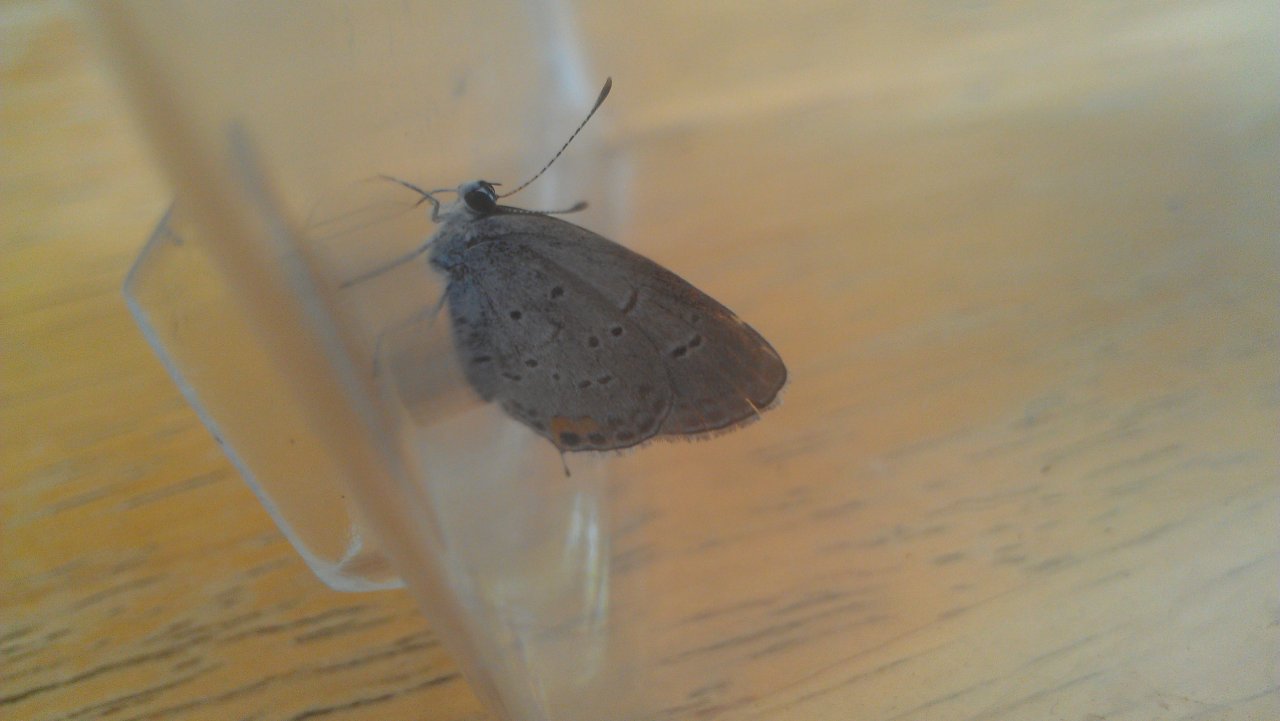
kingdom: Animalia
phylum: Arthropoda
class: Insecta
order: Lepidoptera
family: Lycaenidae
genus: Elkalyce
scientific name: Elkalyce comyntas
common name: Eastern Tailed-Blue
